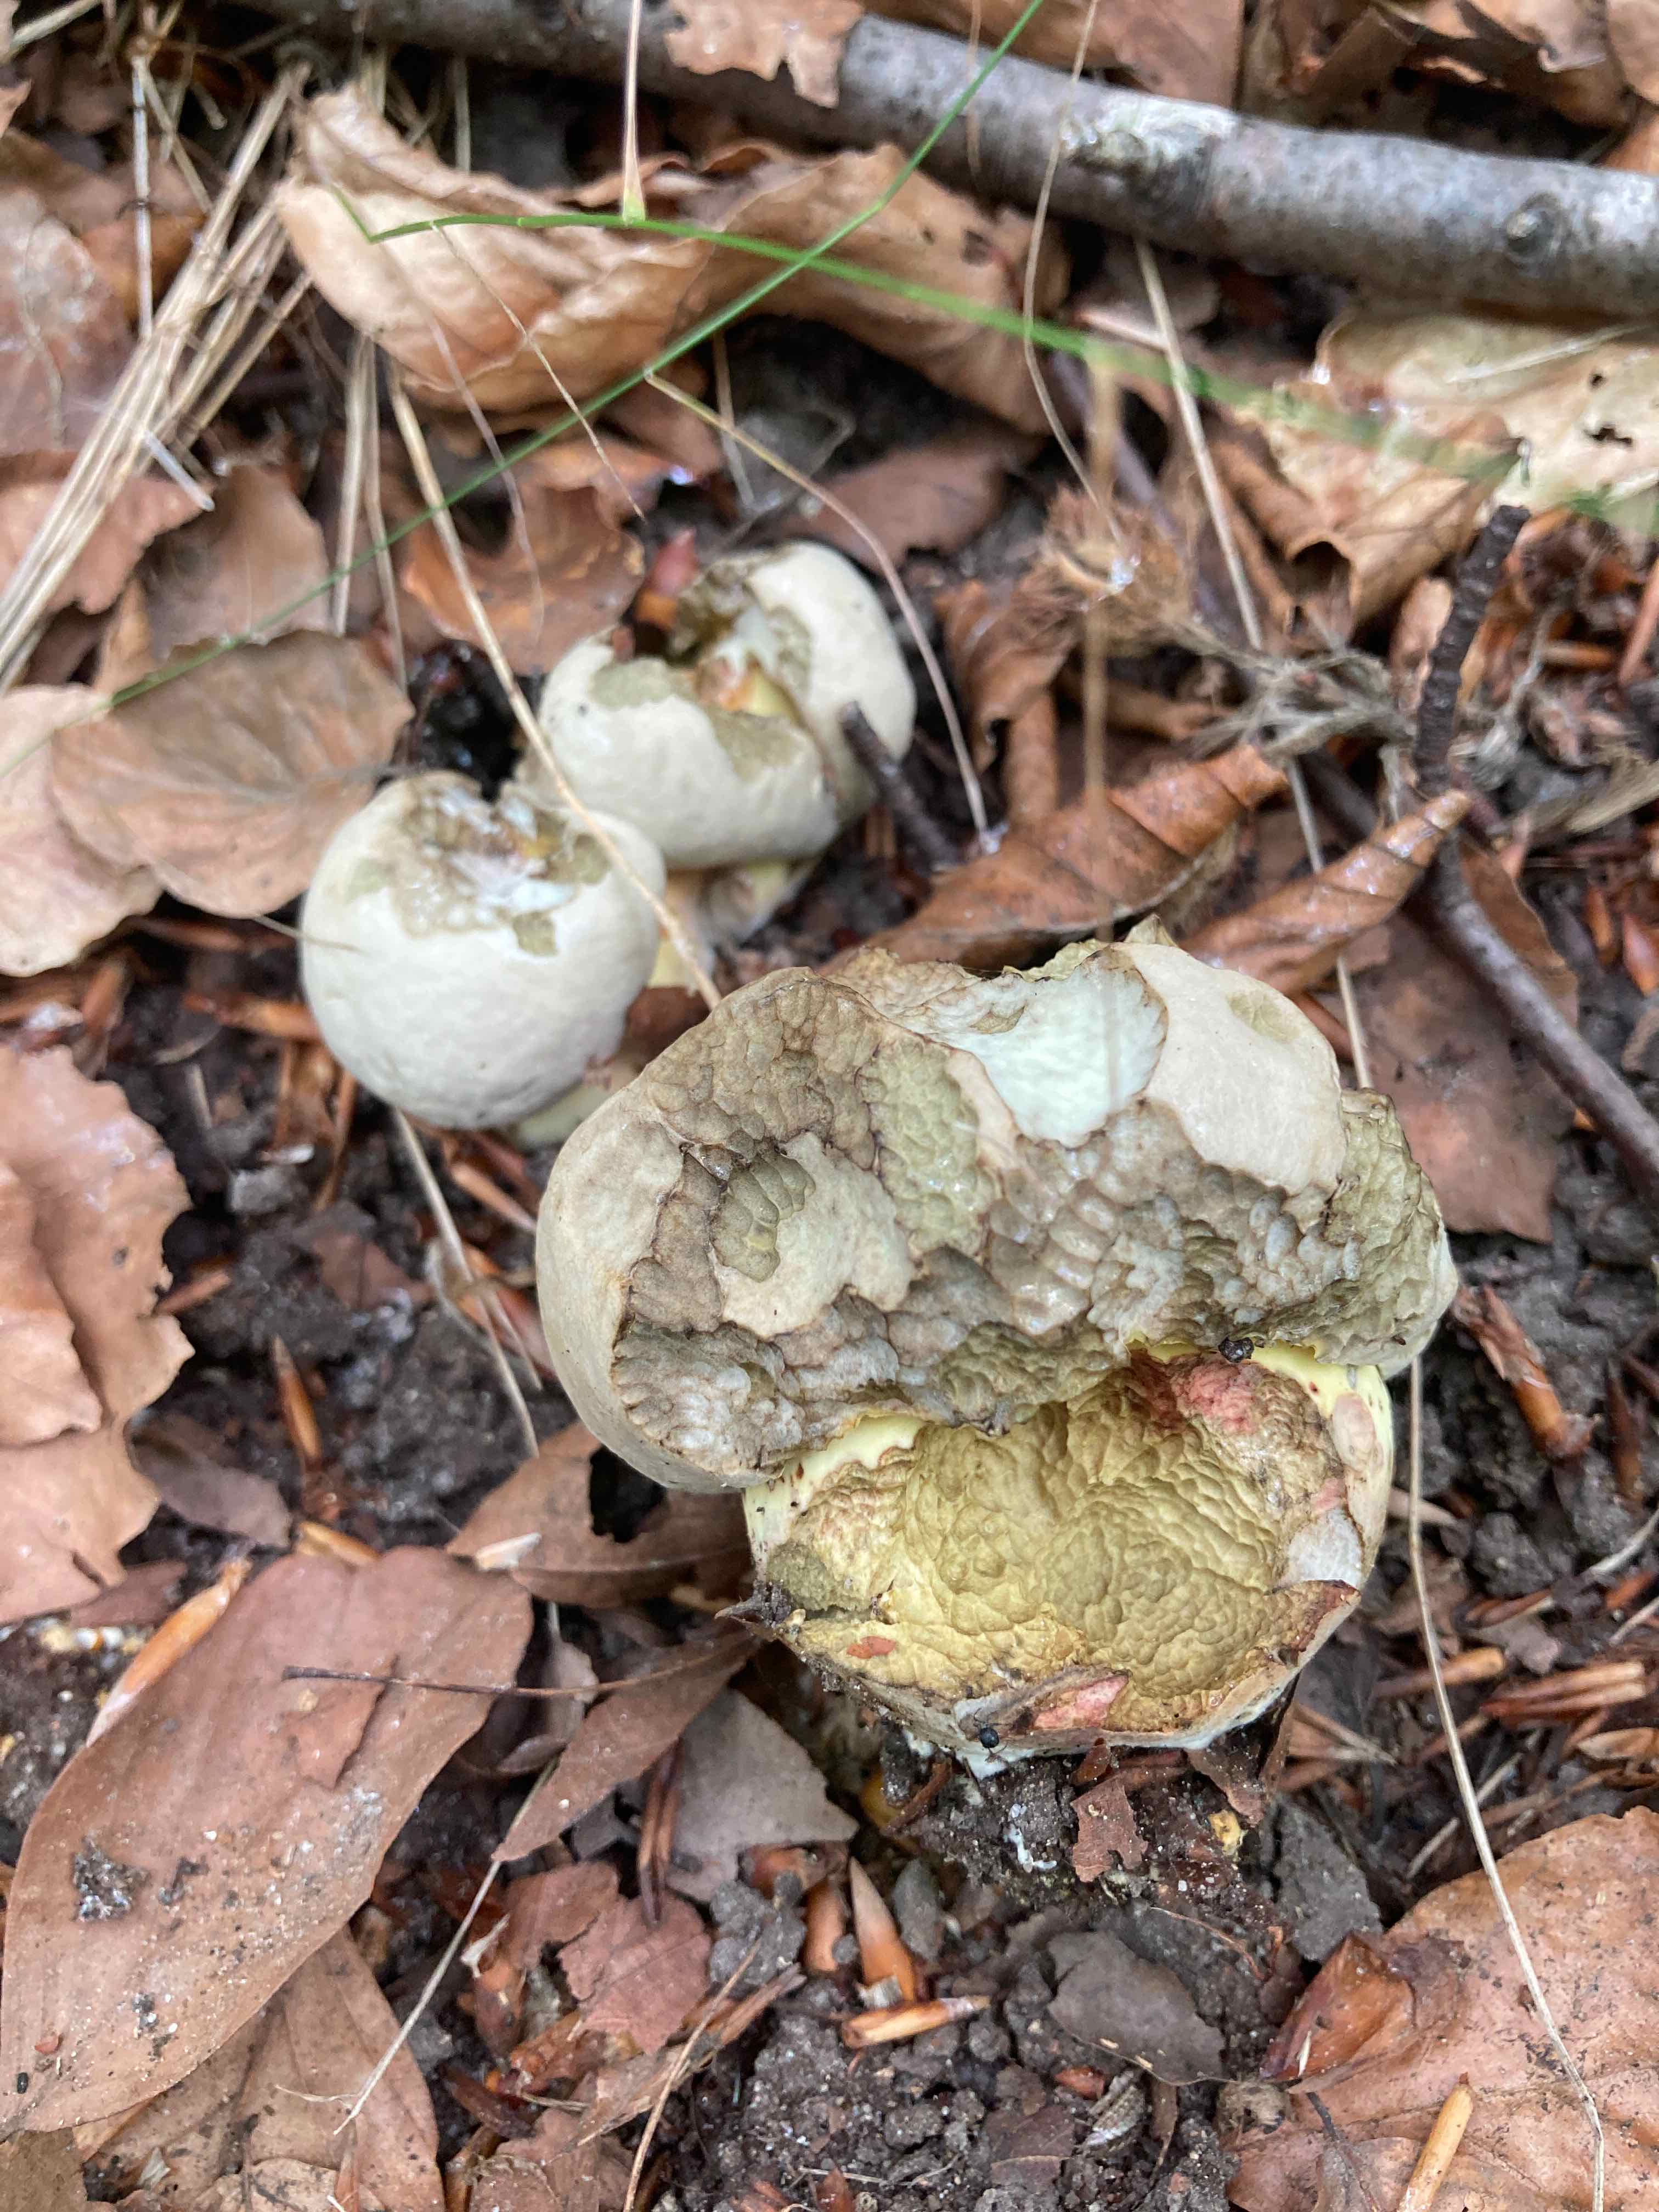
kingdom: Fungi
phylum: Basidiomycota
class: Agaricomycetes
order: Boletales
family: Boletaceae
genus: Caloboletus
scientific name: Caloboletus radicans
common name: rod-rørhat
